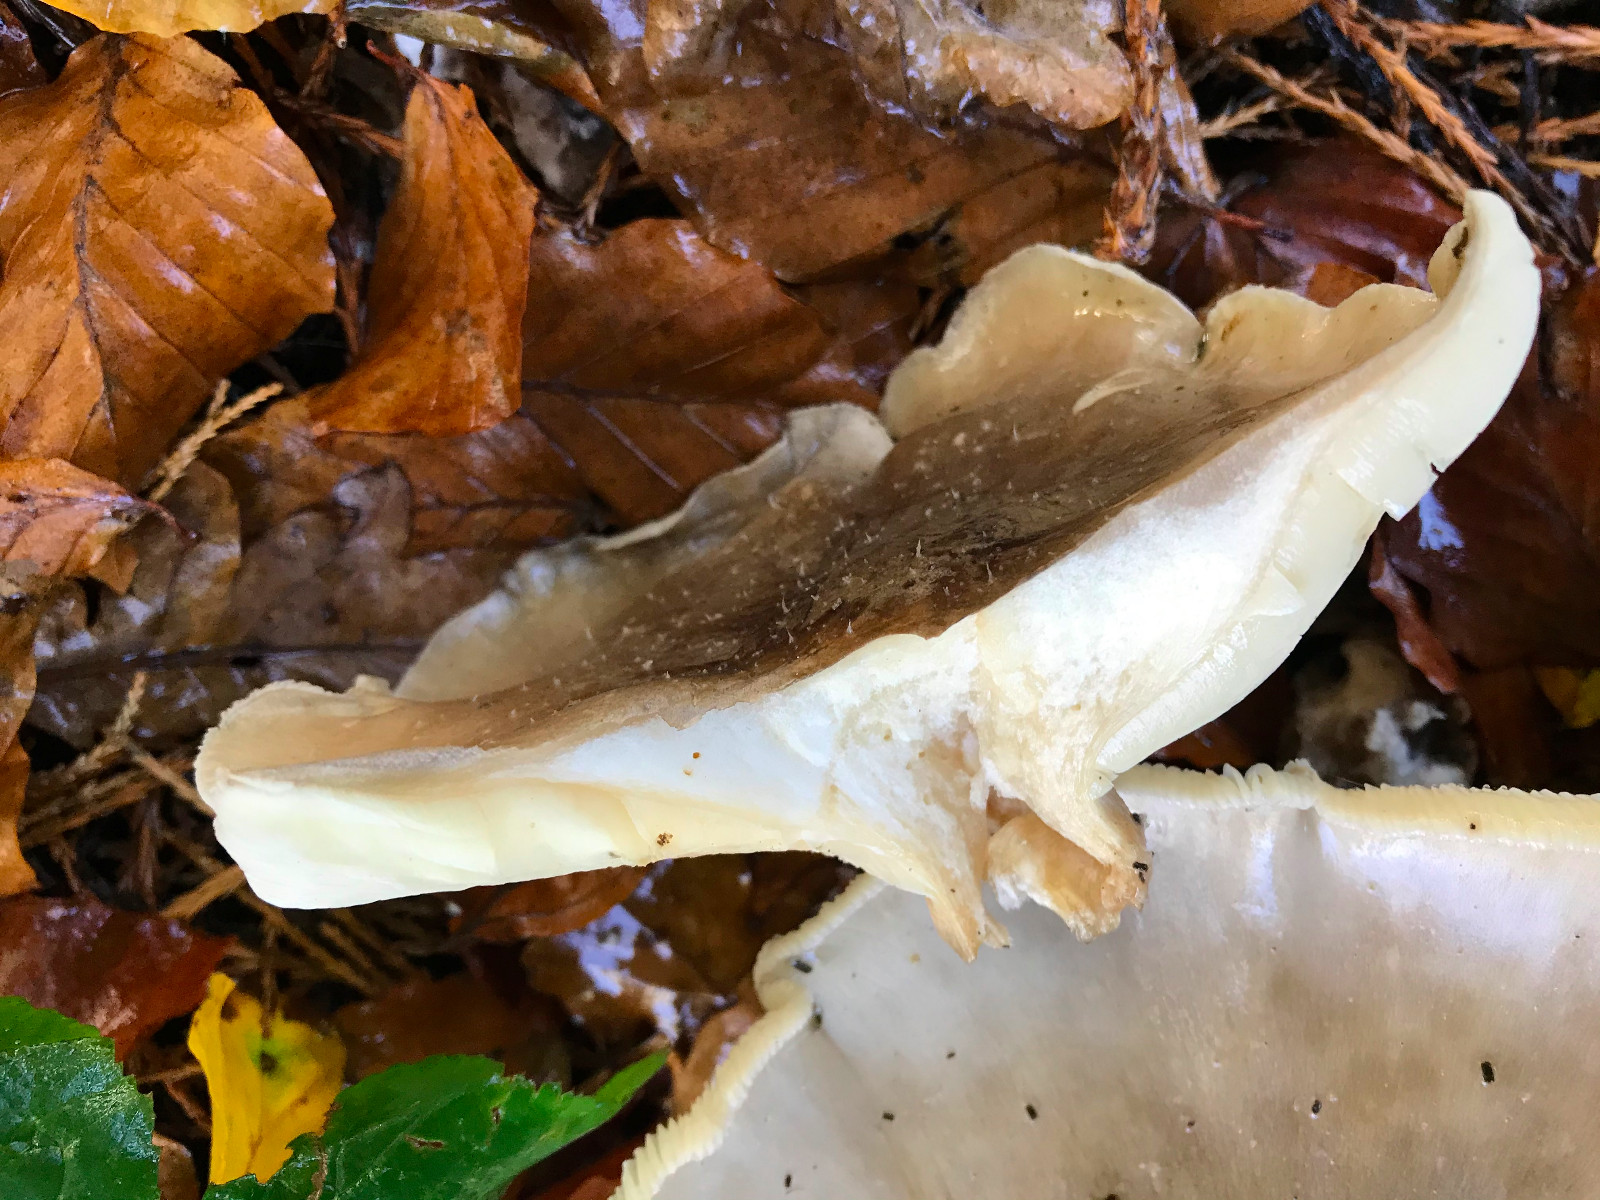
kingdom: Fungi
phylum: Basidiomycota
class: Agaricomycetes
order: Agaricales
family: Tricholomataceae
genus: Clitocybe
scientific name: Clitocybe nebularis
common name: tåge-tragthat
